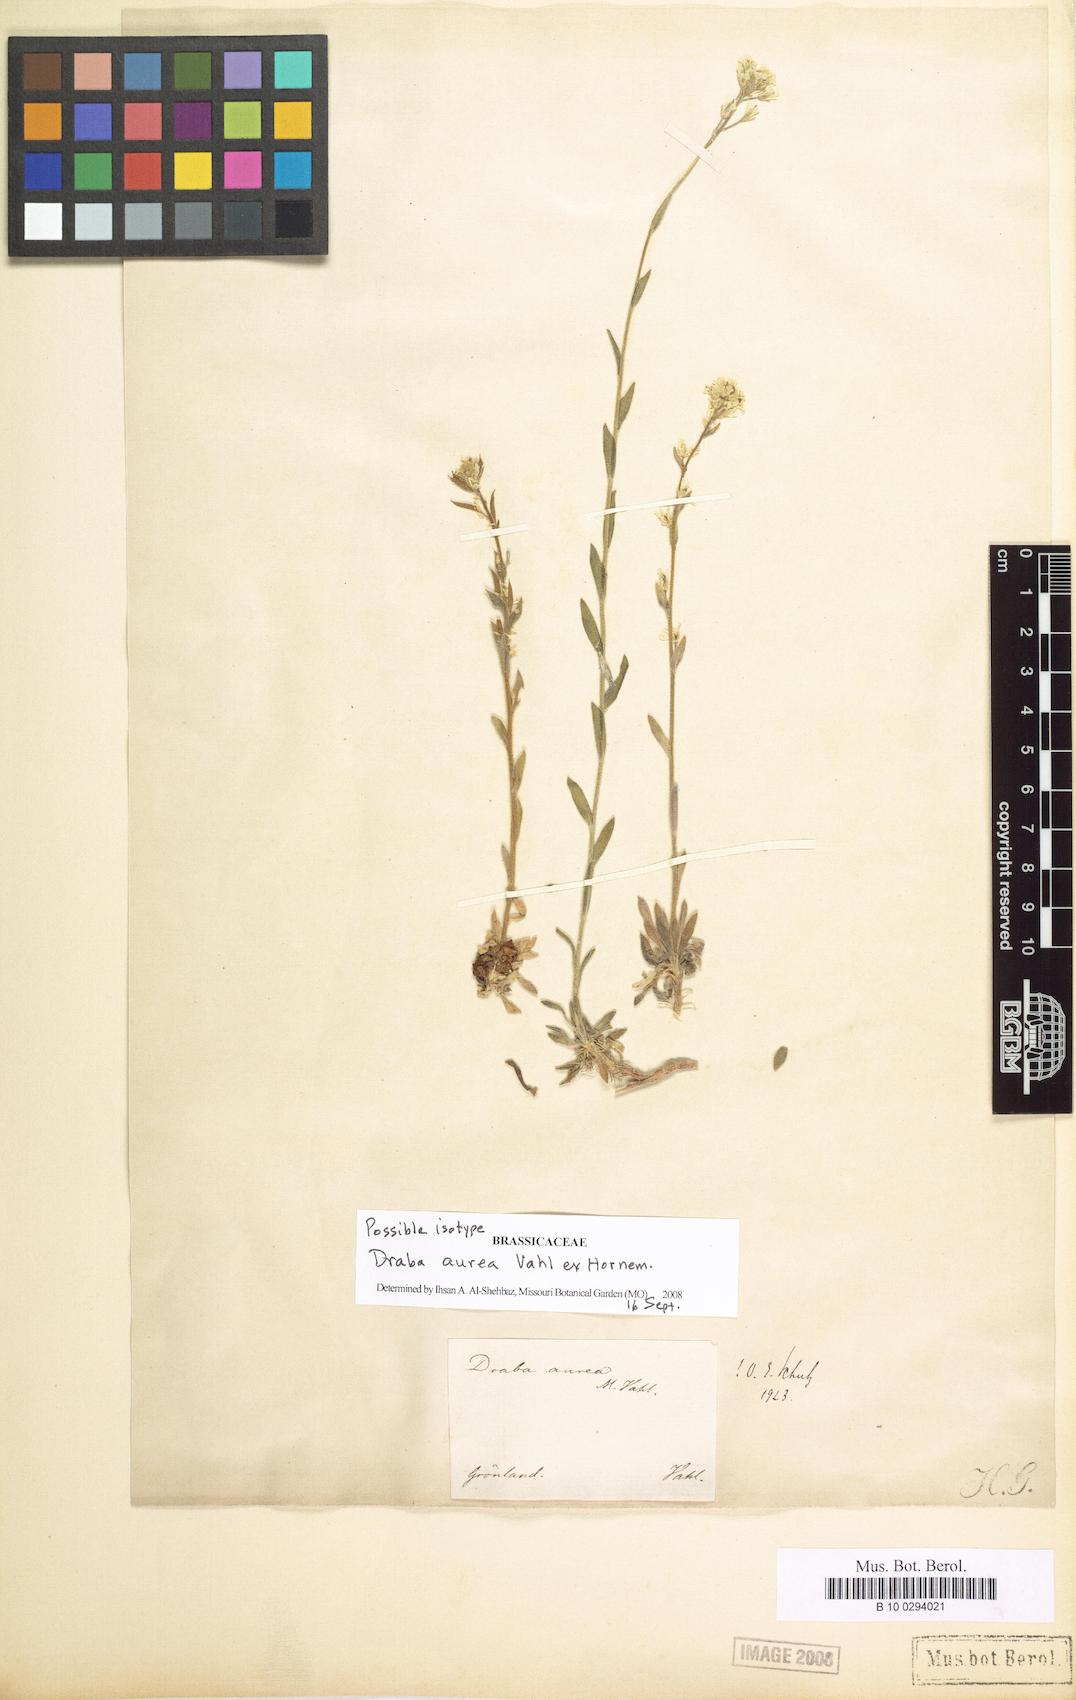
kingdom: Plantae
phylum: Tracheophyta
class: Magnoliopsida
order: Brassicales
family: Brassicaceae
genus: Draba
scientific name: Draba aurea
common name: Golden draba
